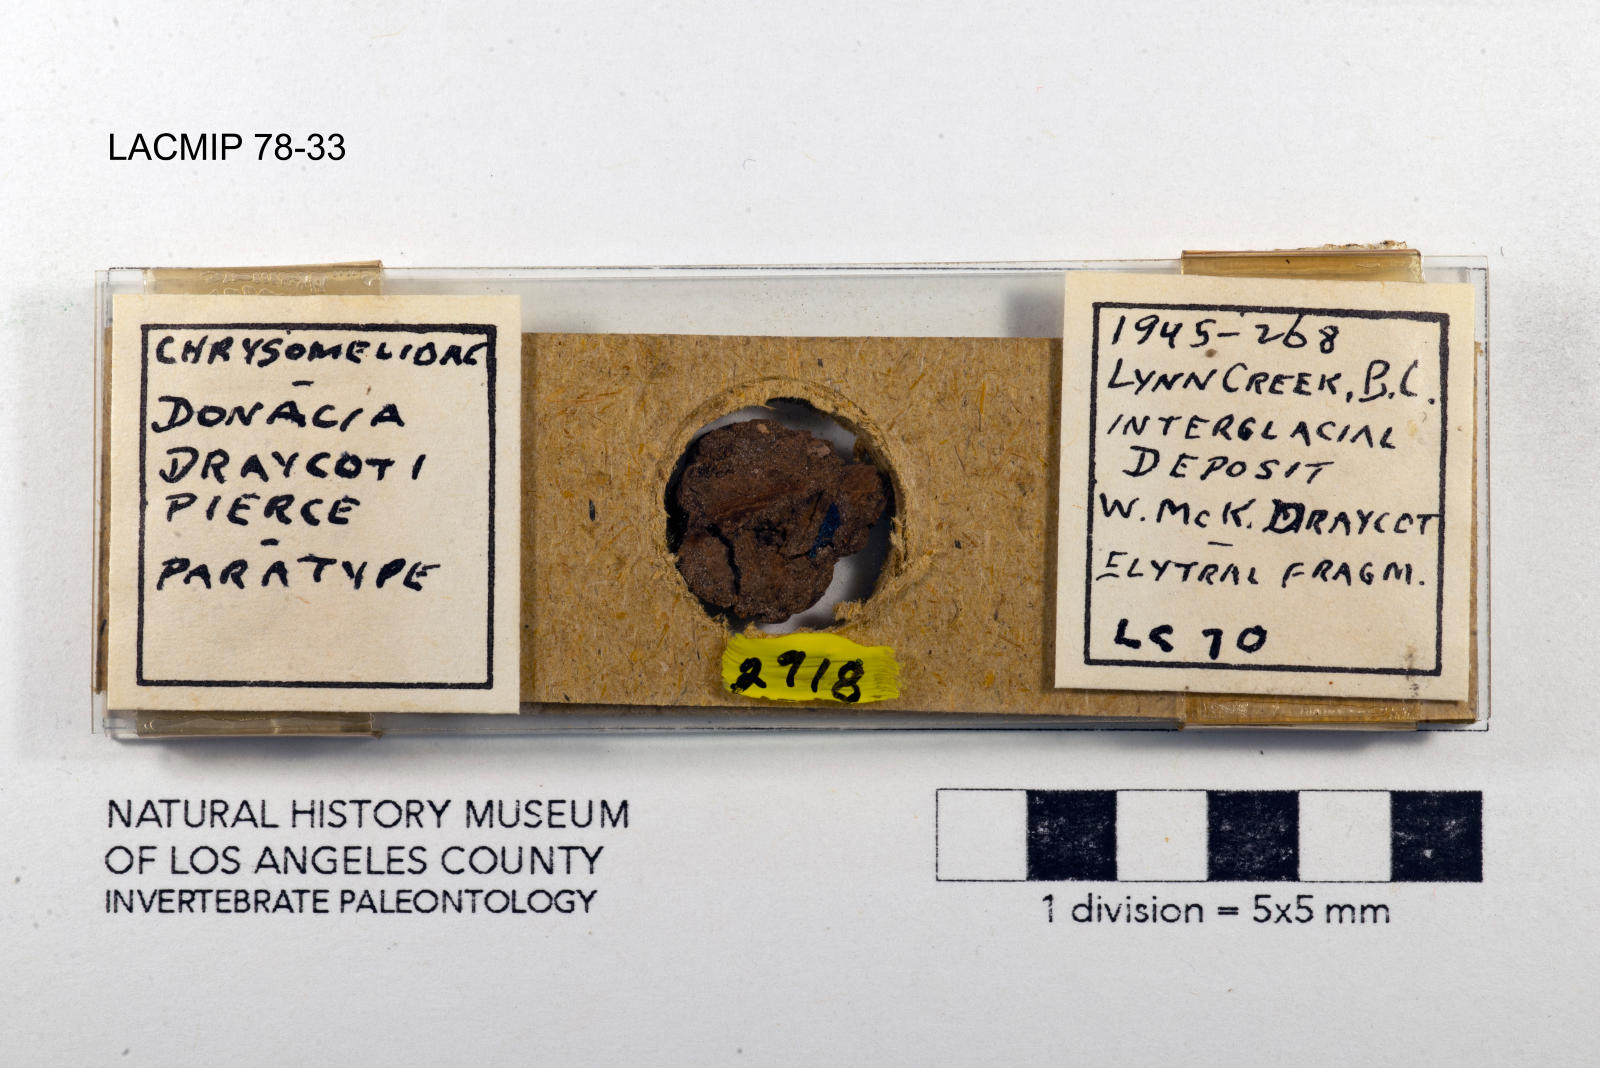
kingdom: Animalia
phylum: Arthropoda
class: Insecta
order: Coleoptera
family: Chrysomelidae
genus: Donacia
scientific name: Donacia draycoti
